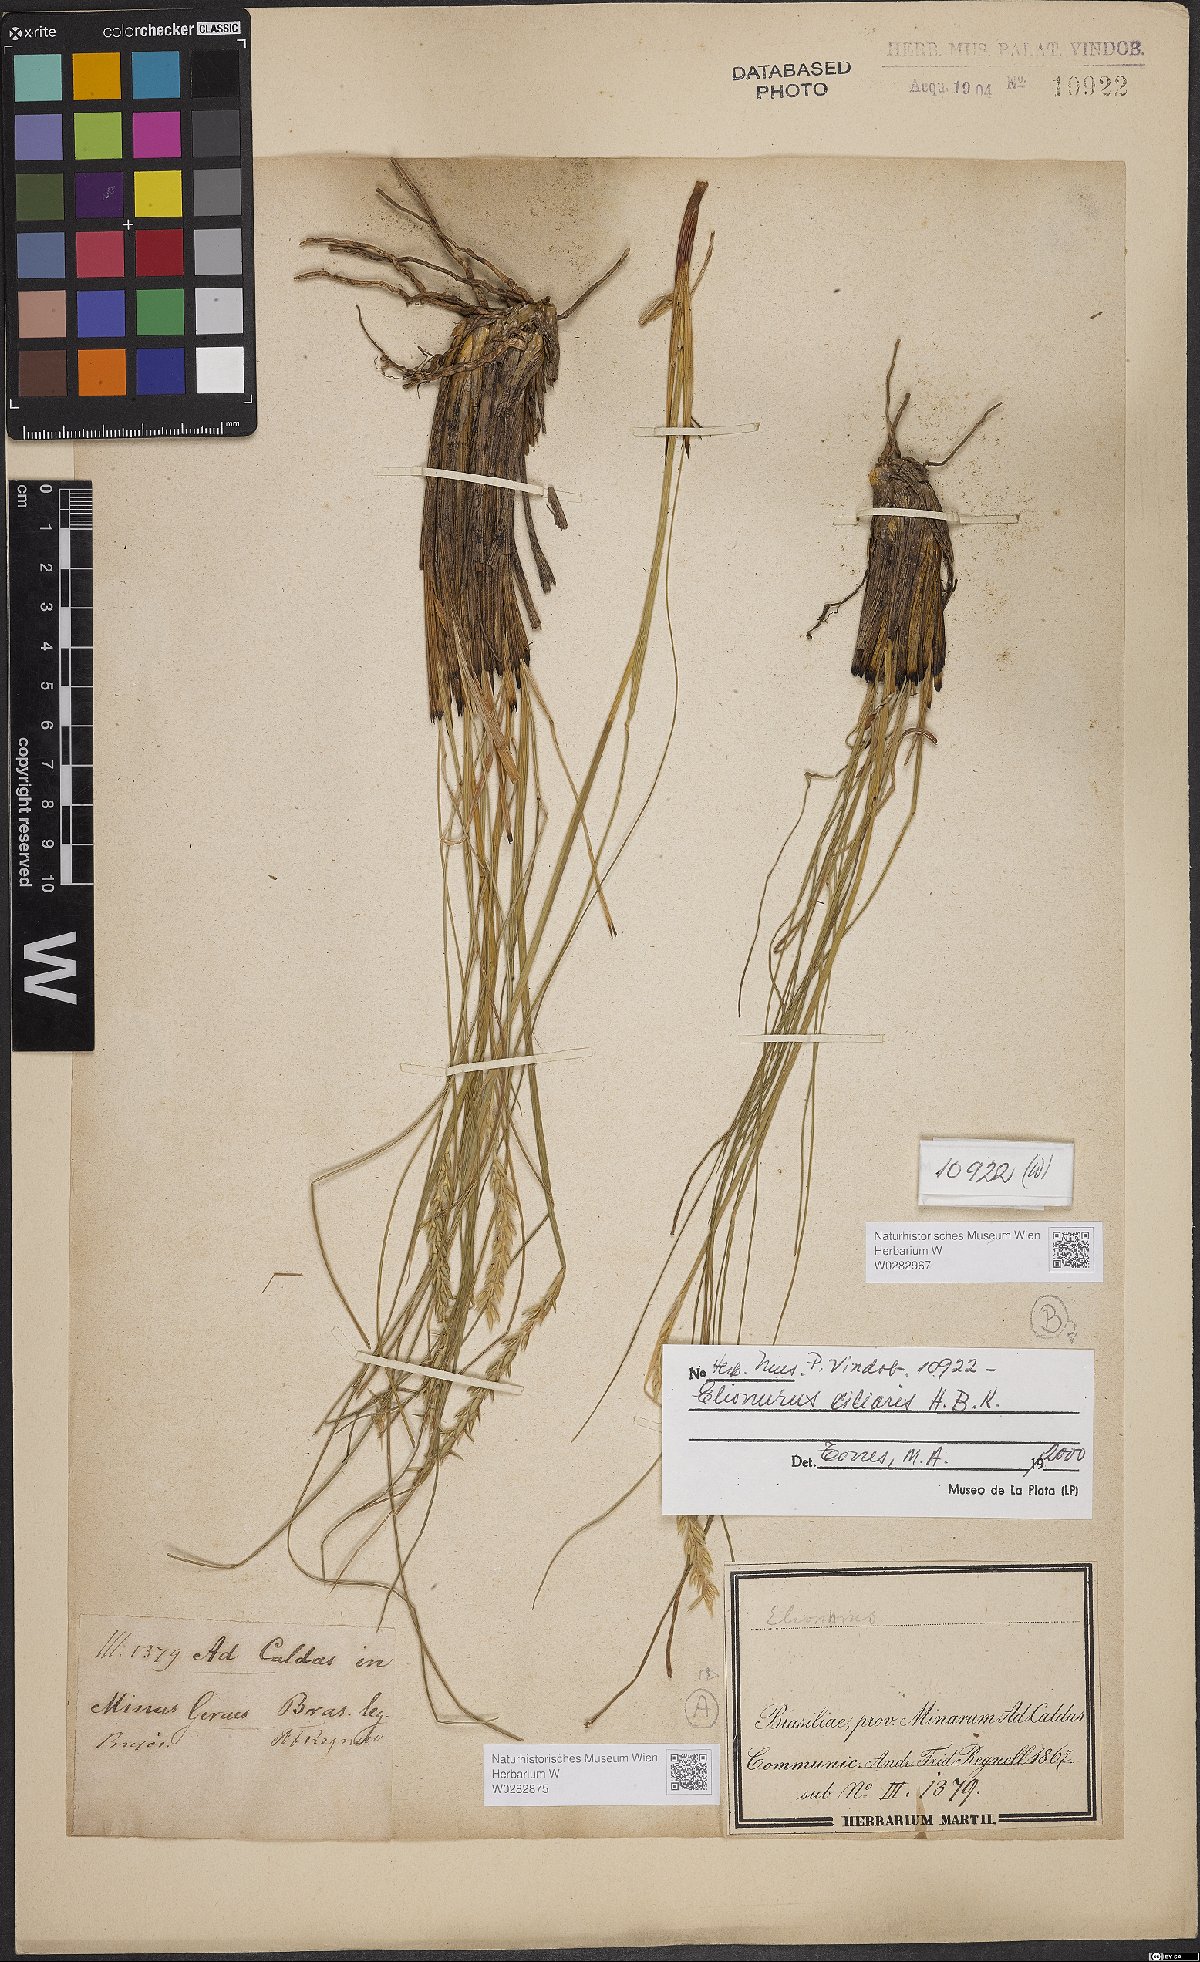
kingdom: Plantae
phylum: Tracheophyta
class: Liliopsida
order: Poales
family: Poaceae
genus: Elionurus
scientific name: Elionurus ciliaris
